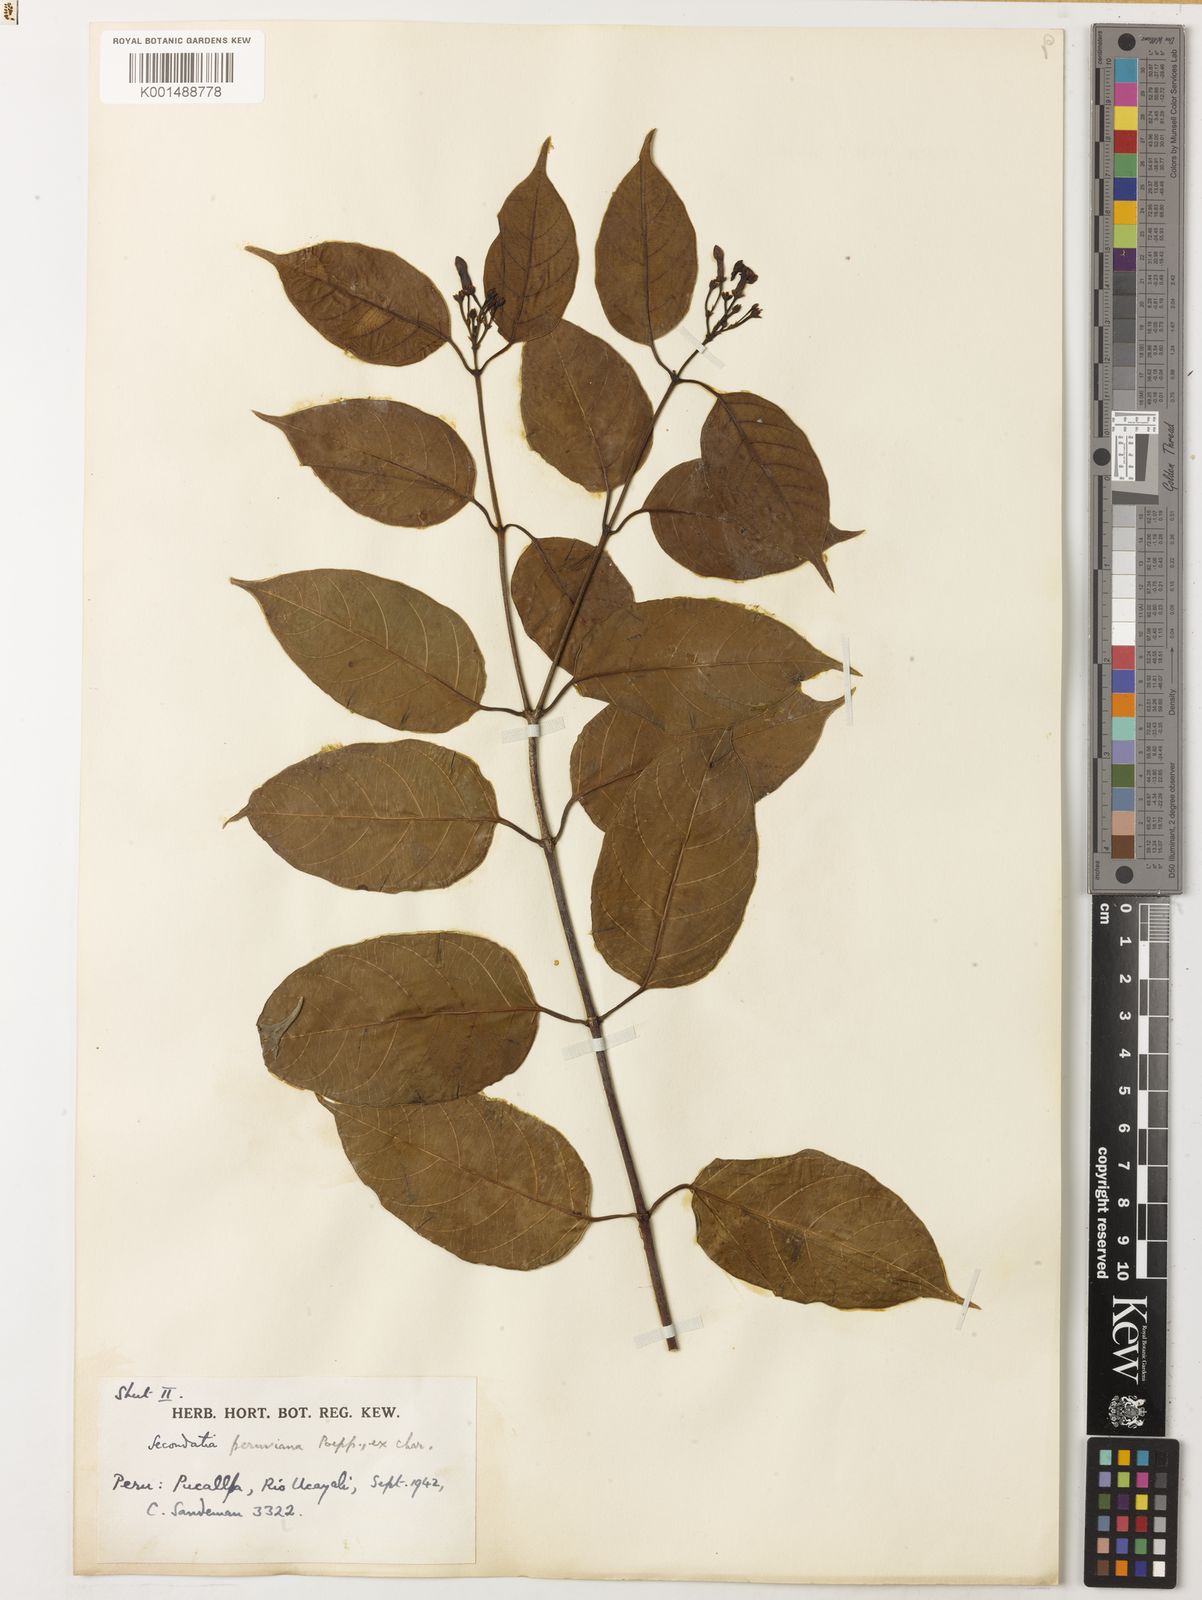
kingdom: Plantae
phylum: Tracheophyta
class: Magnoliopsida
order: Gentianales
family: Apocynaceae
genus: Secondatia
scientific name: Secondatia densiflora
